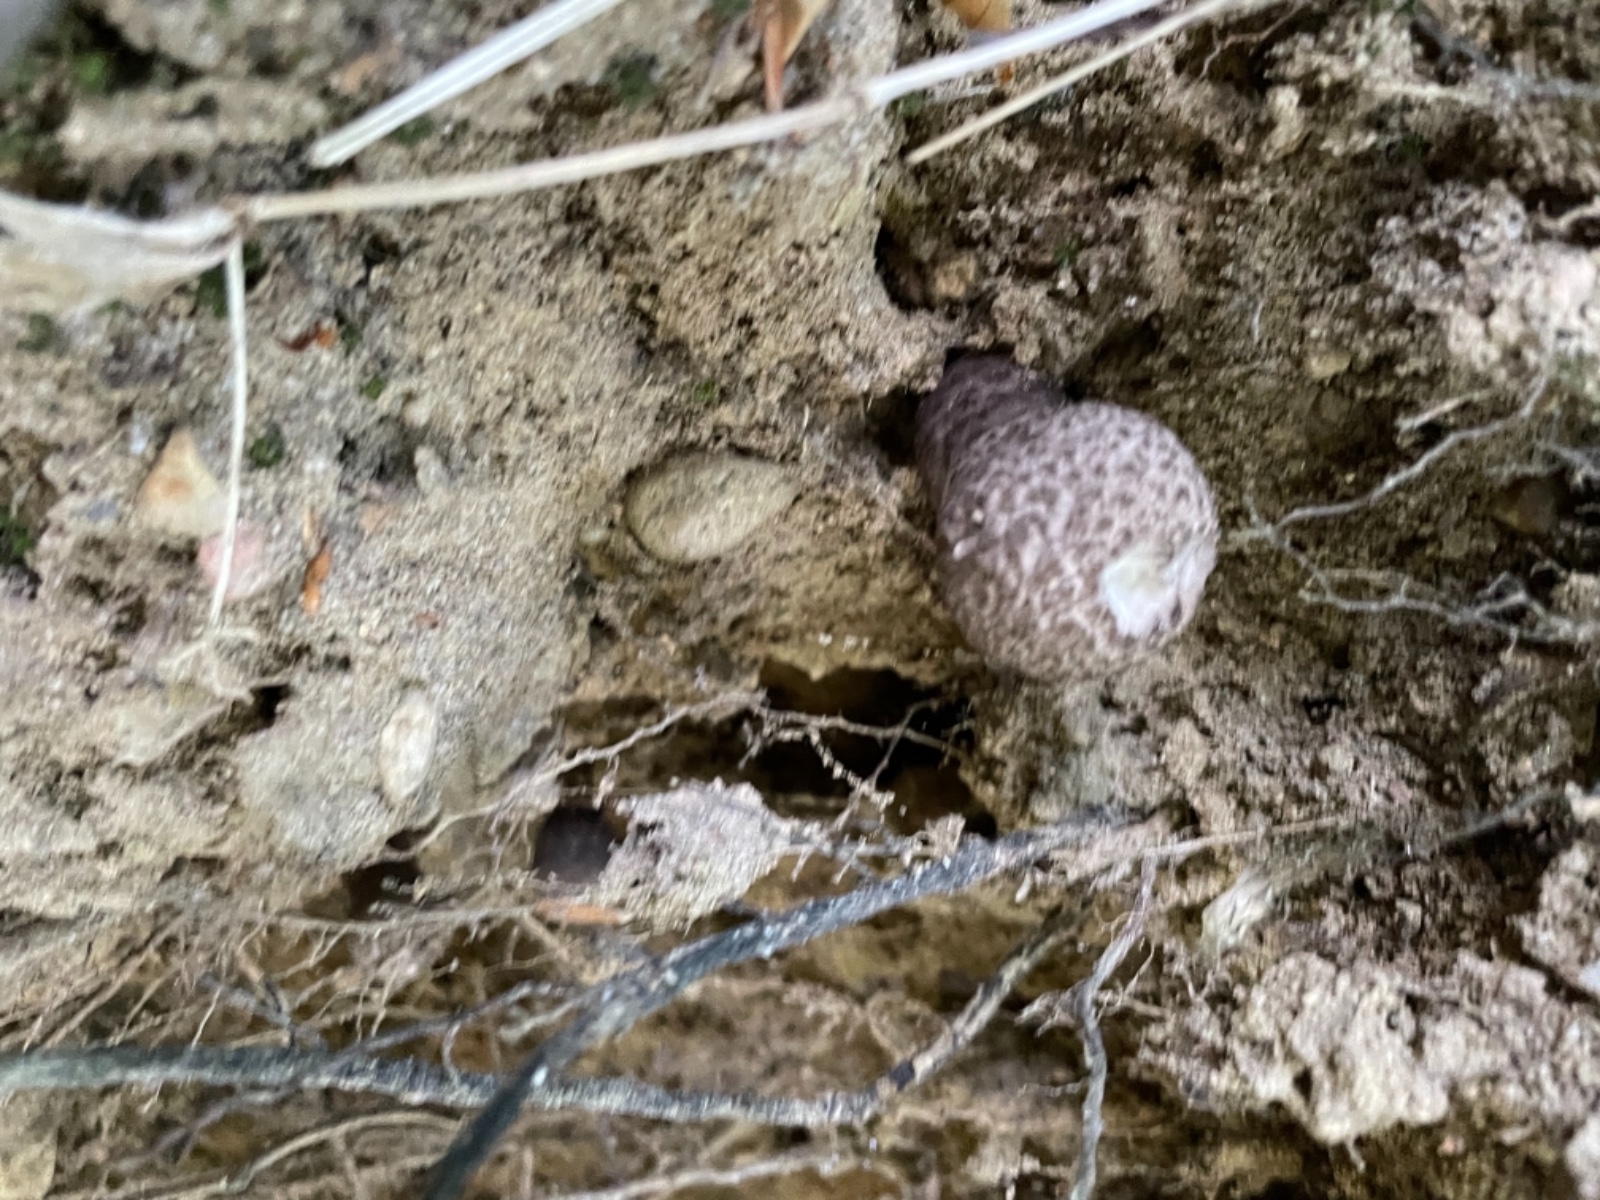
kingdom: Fungi
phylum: Basidiomycota
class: Agaricomycetes
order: Boletales
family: Boletaceae
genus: Strobilomyces
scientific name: Strobilomyces strobilaceus
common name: koglerørhat
